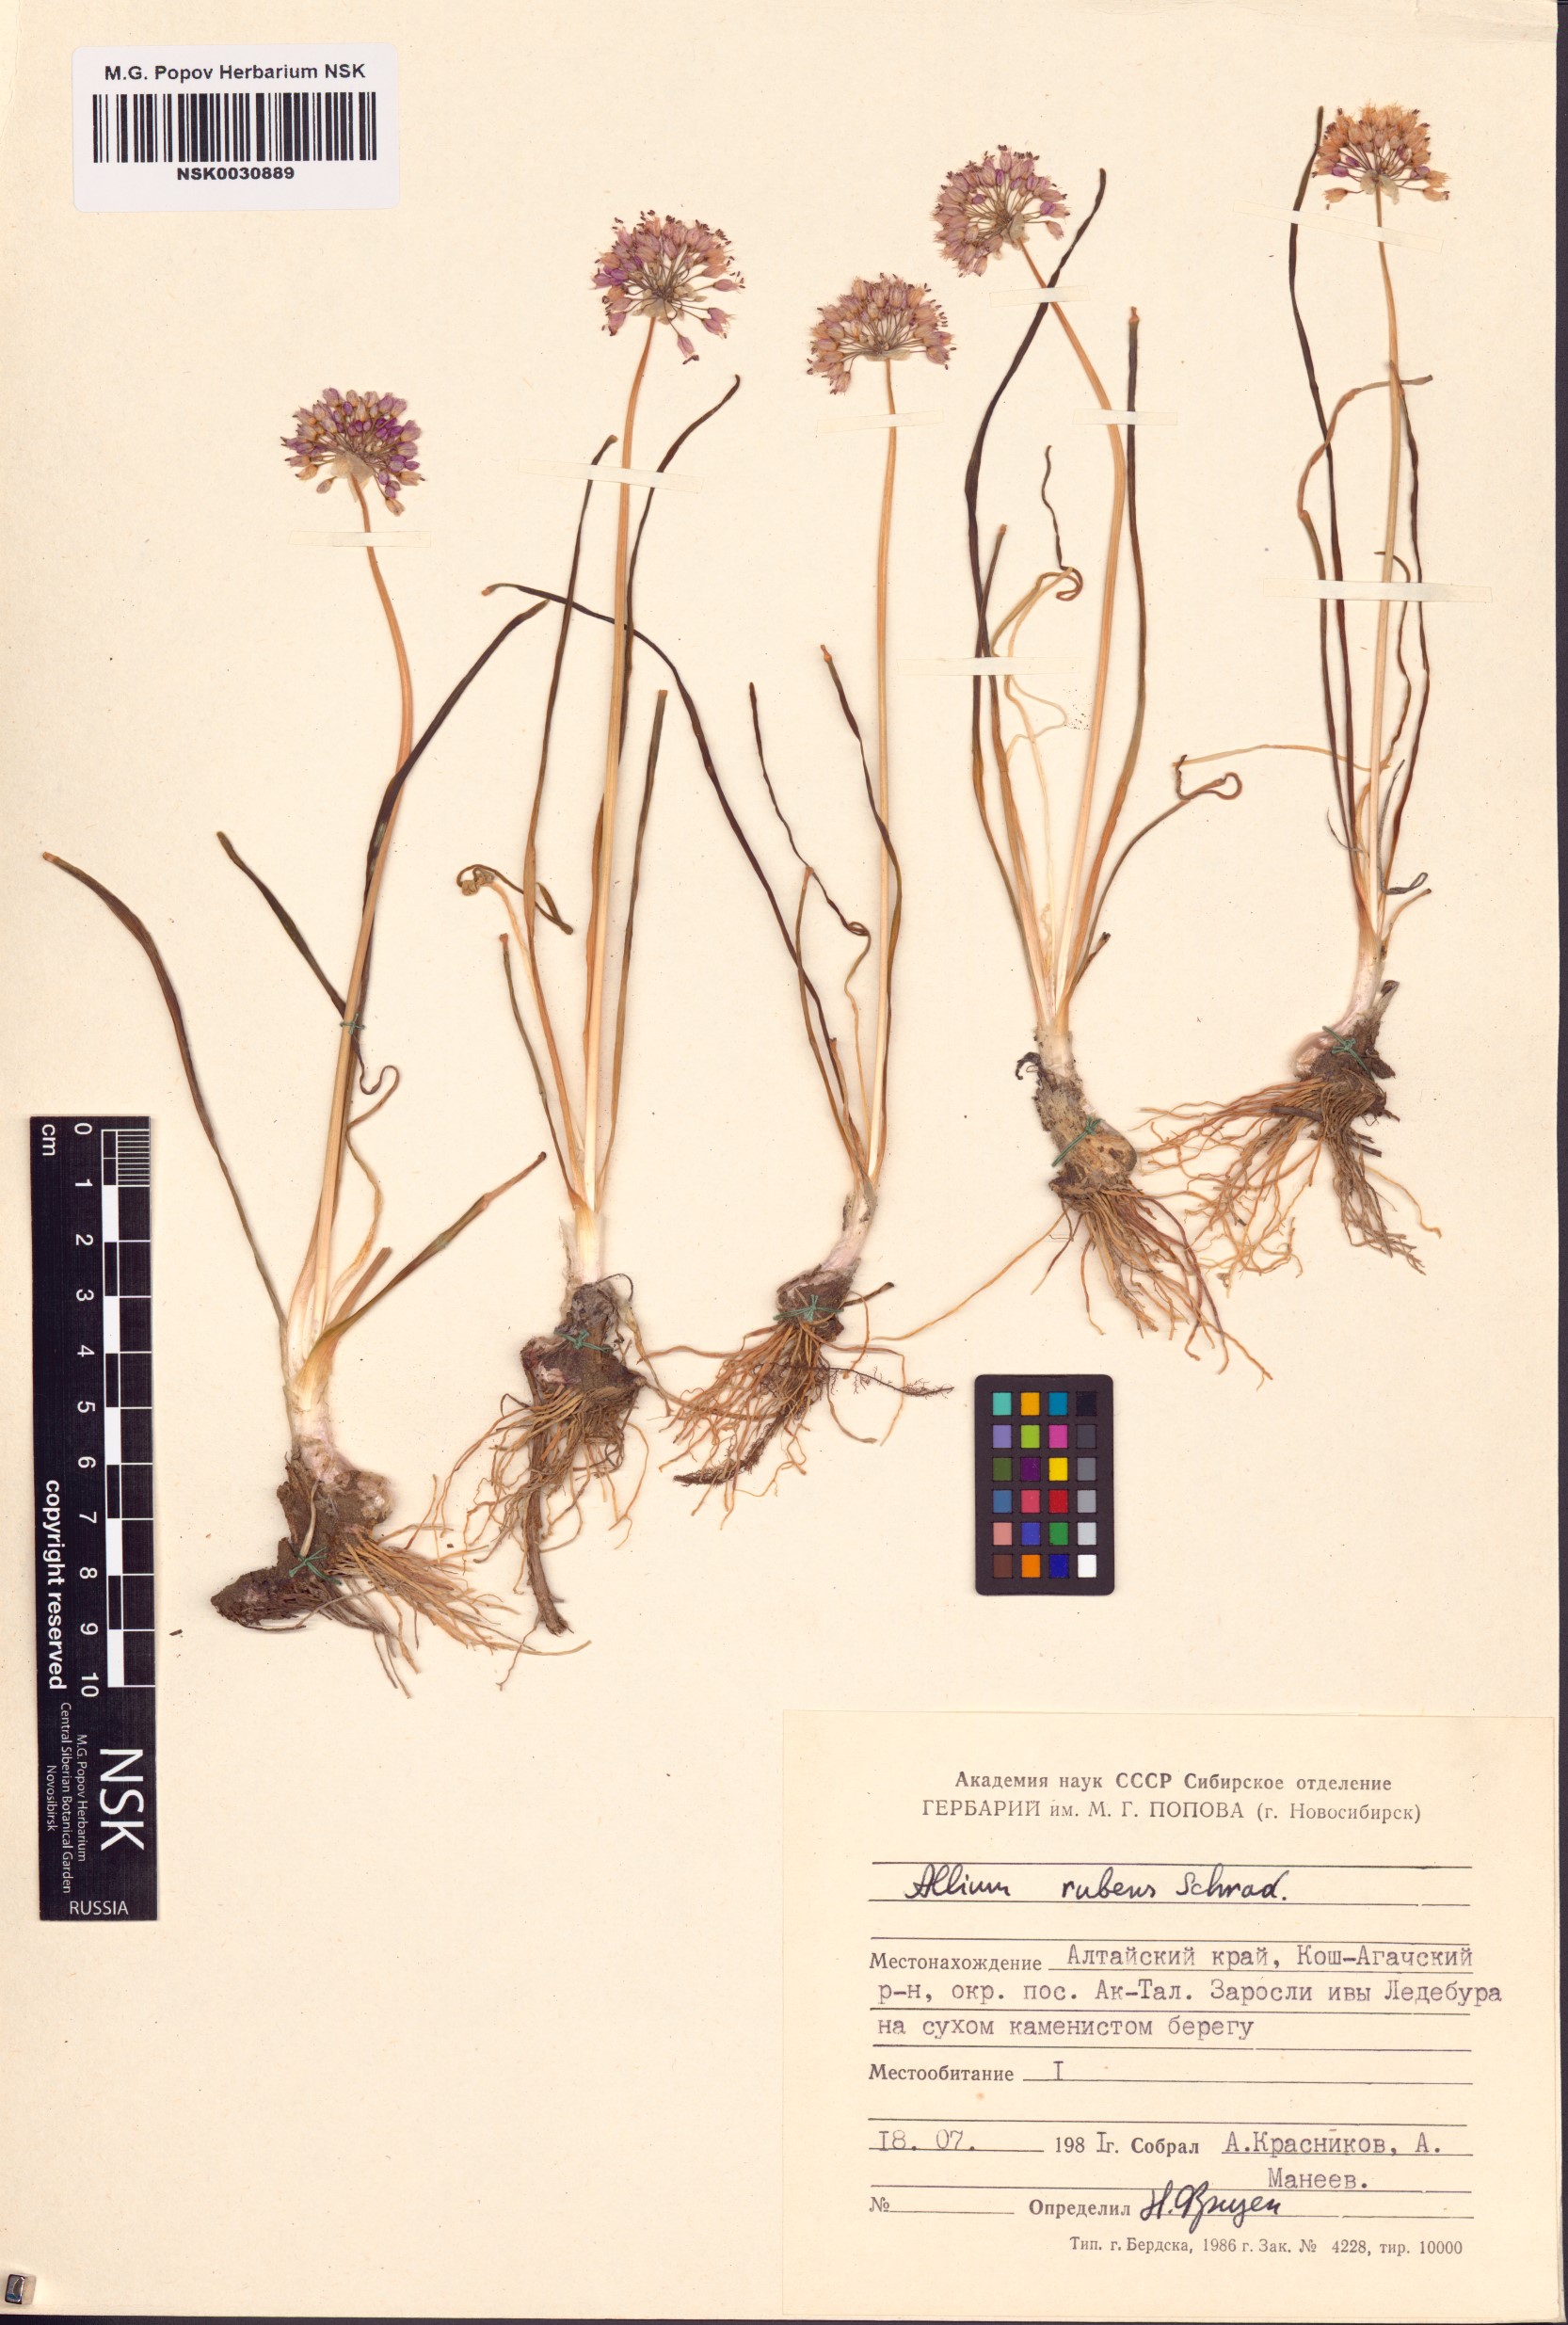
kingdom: Plantae
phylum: Tracheophyta
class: Liliopsida
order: Asparagales
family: Amaryllidaceae
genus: Allium
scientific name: Allium rubens
